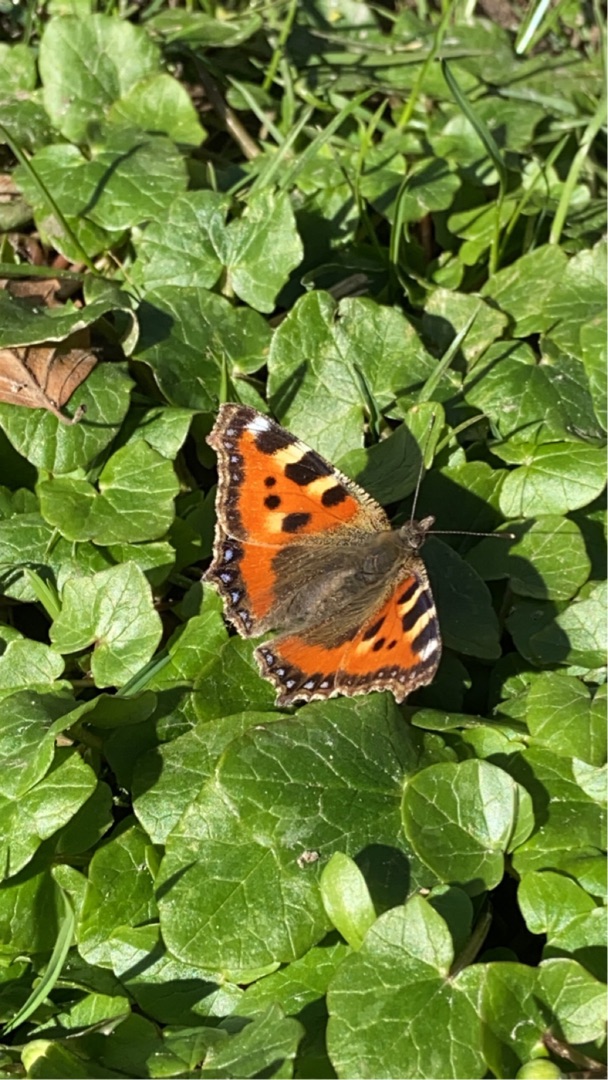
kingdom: Animalia
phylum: Arthropoda
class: Insecta
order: Lepidoptera
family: Nymphalidae
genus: Aglais
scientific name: Aglais urticae
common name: Nældens takvinge
